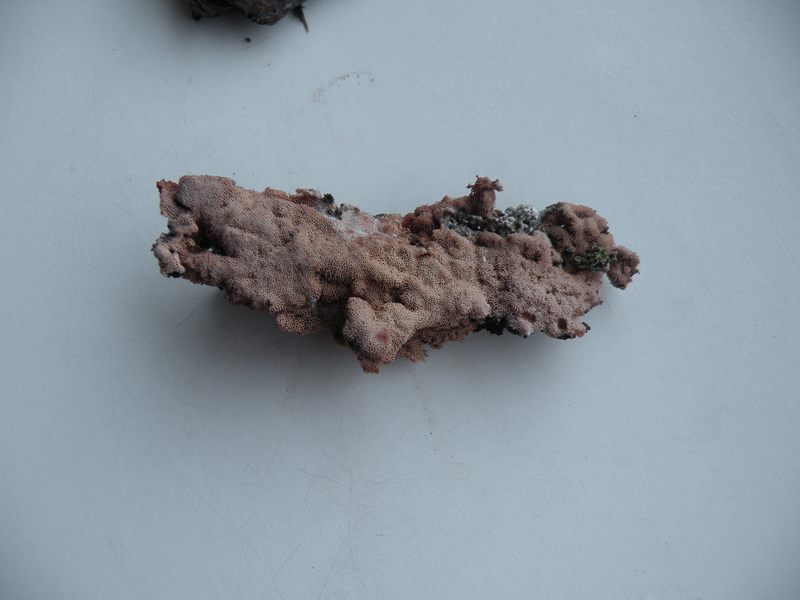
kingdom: Fungi
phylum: Basidiomycota
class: Agaricomycetes
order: Polyporales
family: Irpicaceae
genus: Ceriporia
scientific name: Ceriporia excelsa
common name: lilla voksporesvamp
